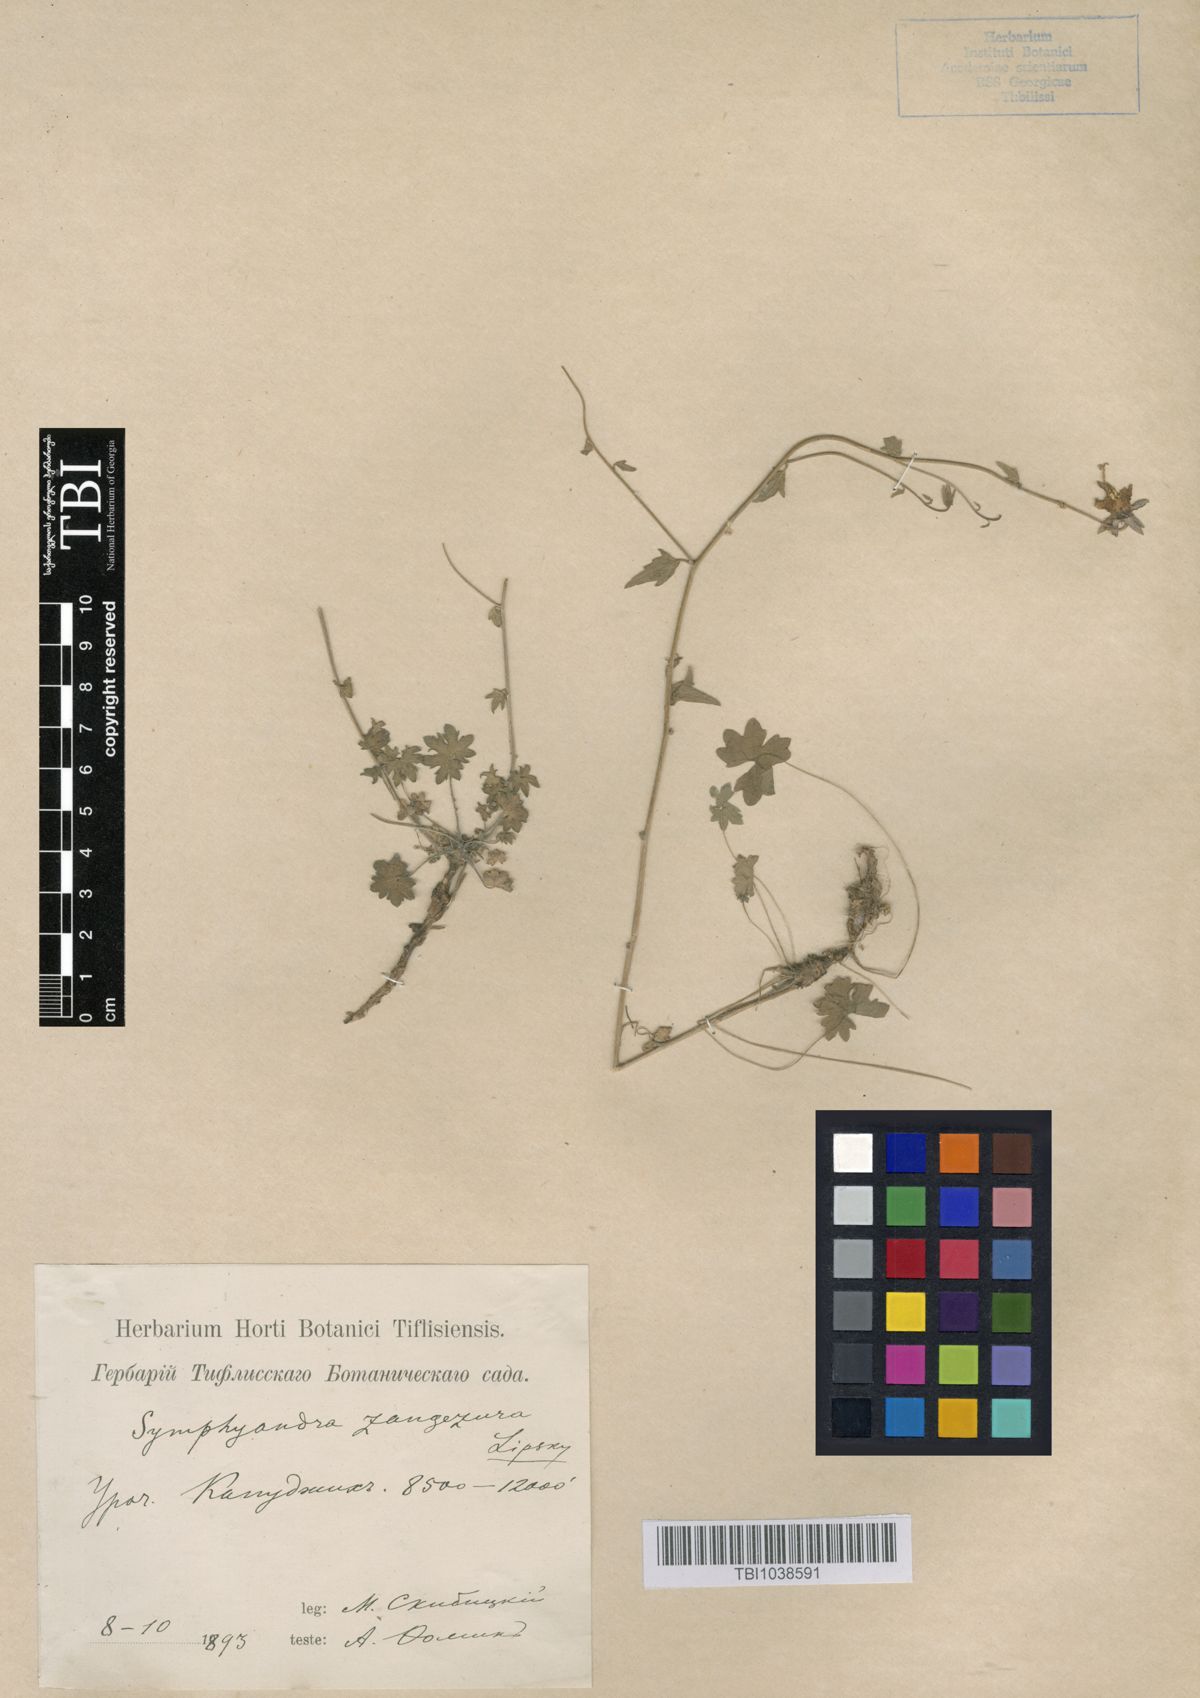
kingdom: Plantae
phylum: Tracheophyta
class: Magnoliopsida
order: Asterales
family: Campanulaceae
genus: Campanula
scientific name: Campanula zangezura
